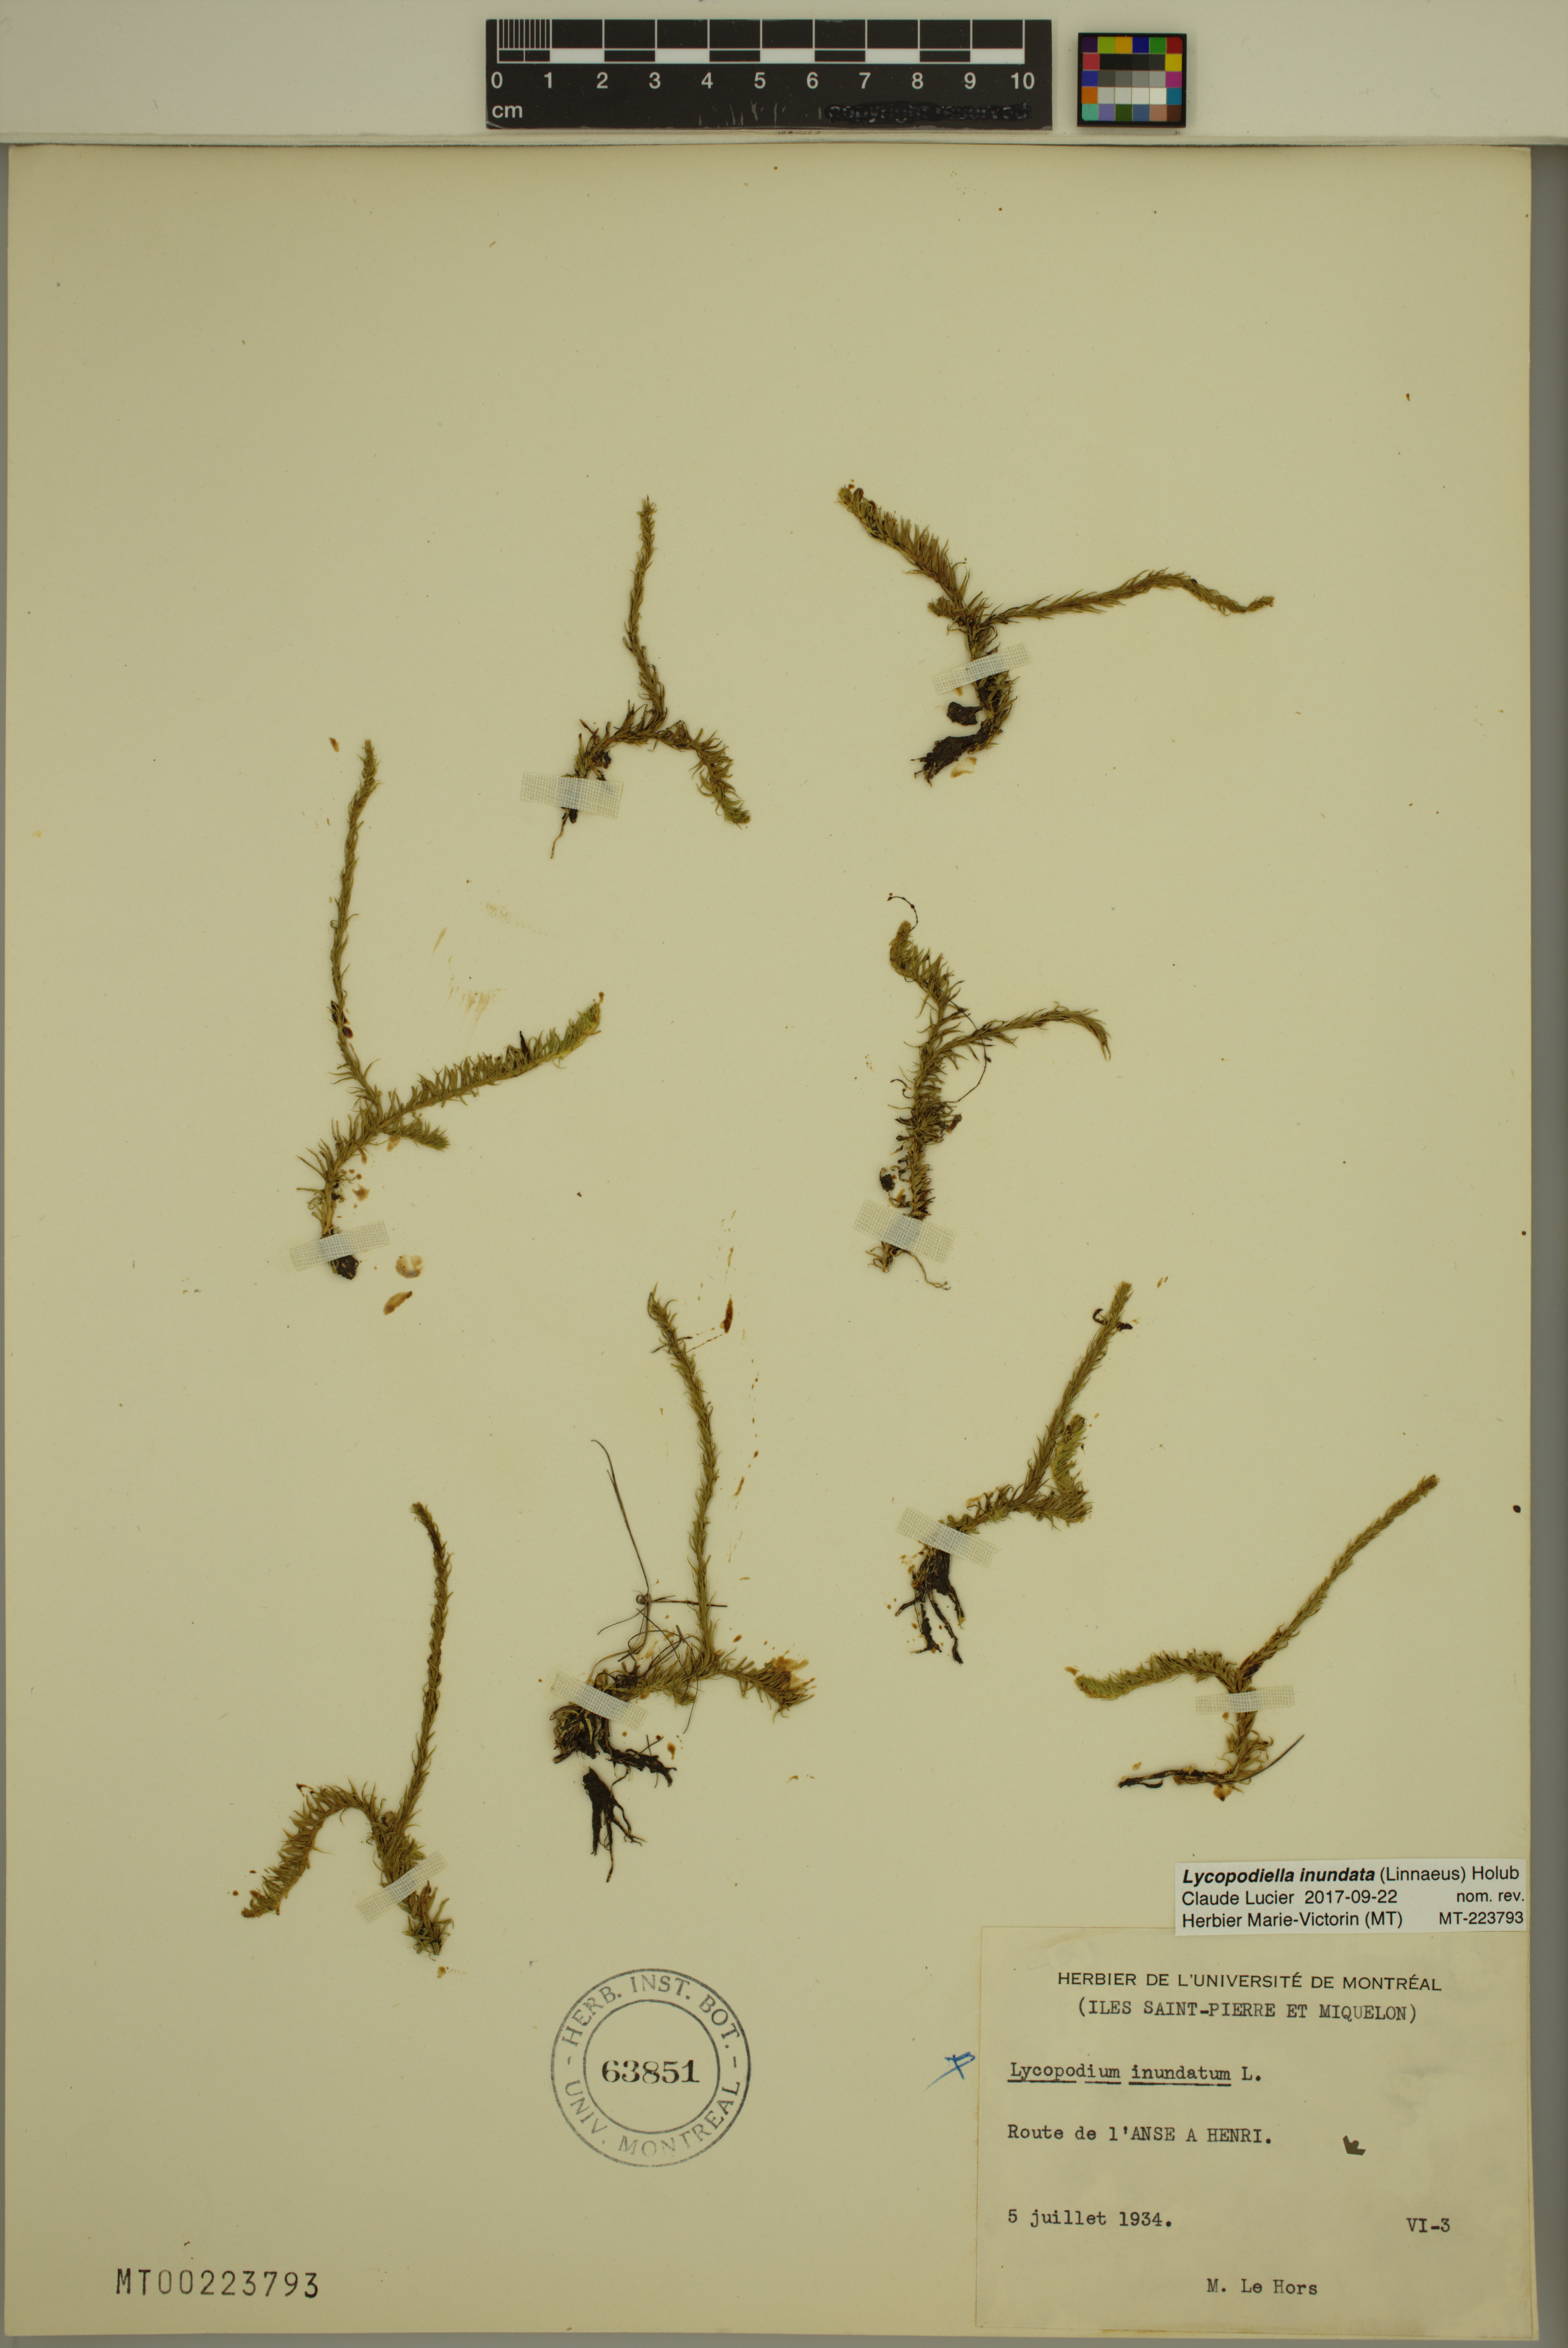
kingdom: Plantae
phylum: Tracheophyta
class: Lycopodiopsida
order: Lycopodiales
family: Lycopodiaceae
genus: Lycopodiella
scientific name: Lycopodiella inundata
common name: Marsh clubmoss
